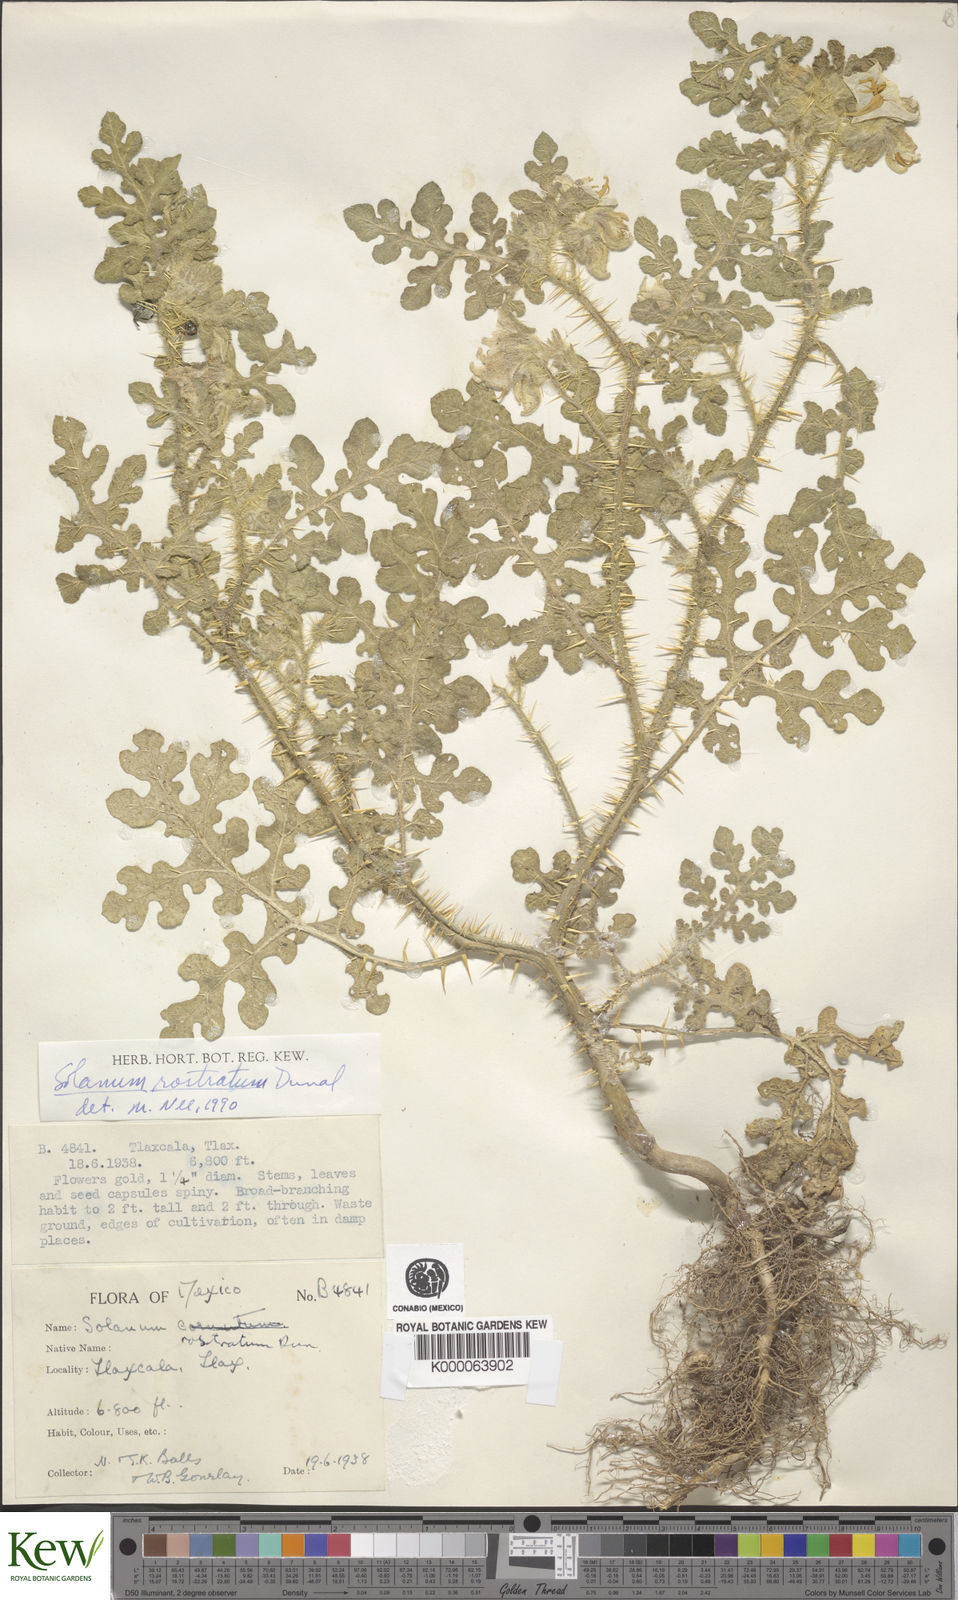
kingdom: Plantae
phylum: Tracheophyta
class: Magnoliopsida
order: Solanales
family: Solanaceae
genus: Solanum
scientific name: Solanum angustifolium
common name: Buffalobur nightshade
